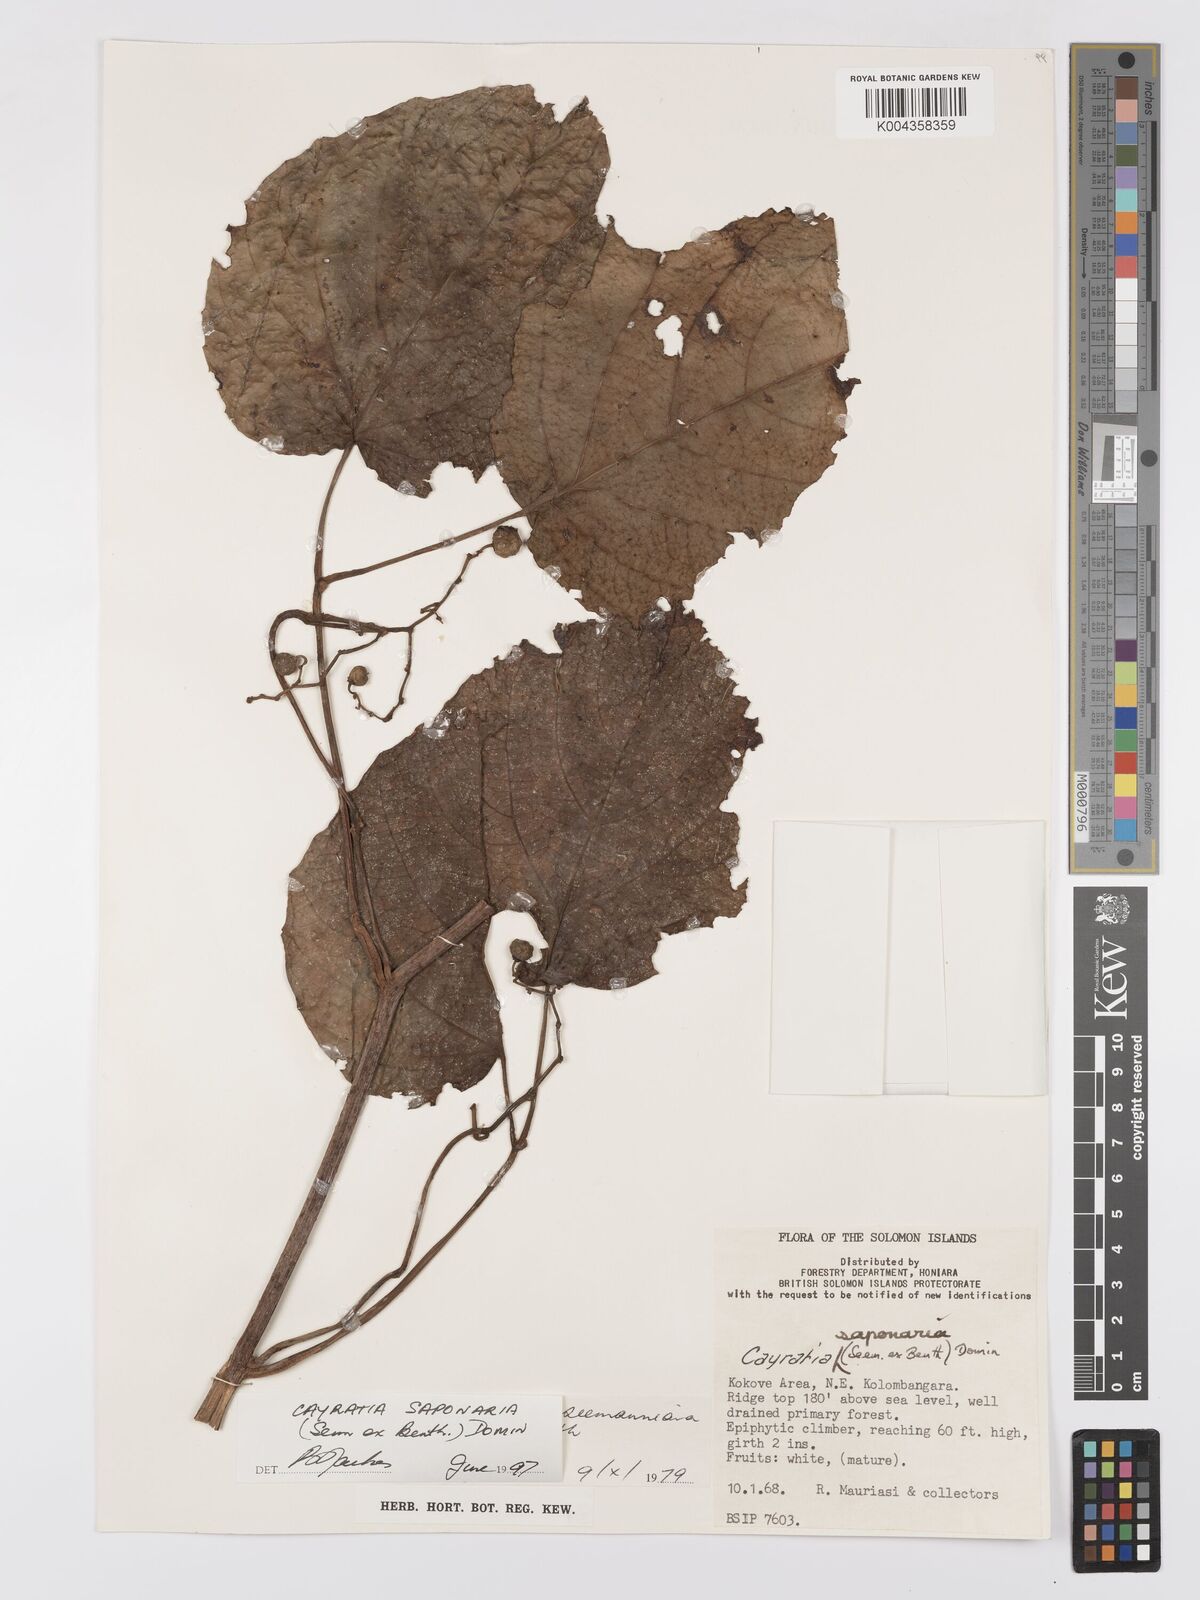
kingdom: Plantae
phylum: Tracheophyta
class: Magnoliopsida
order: Vitales
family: Vitaceae
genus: Cayratia
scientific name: Cayratia saponaria
